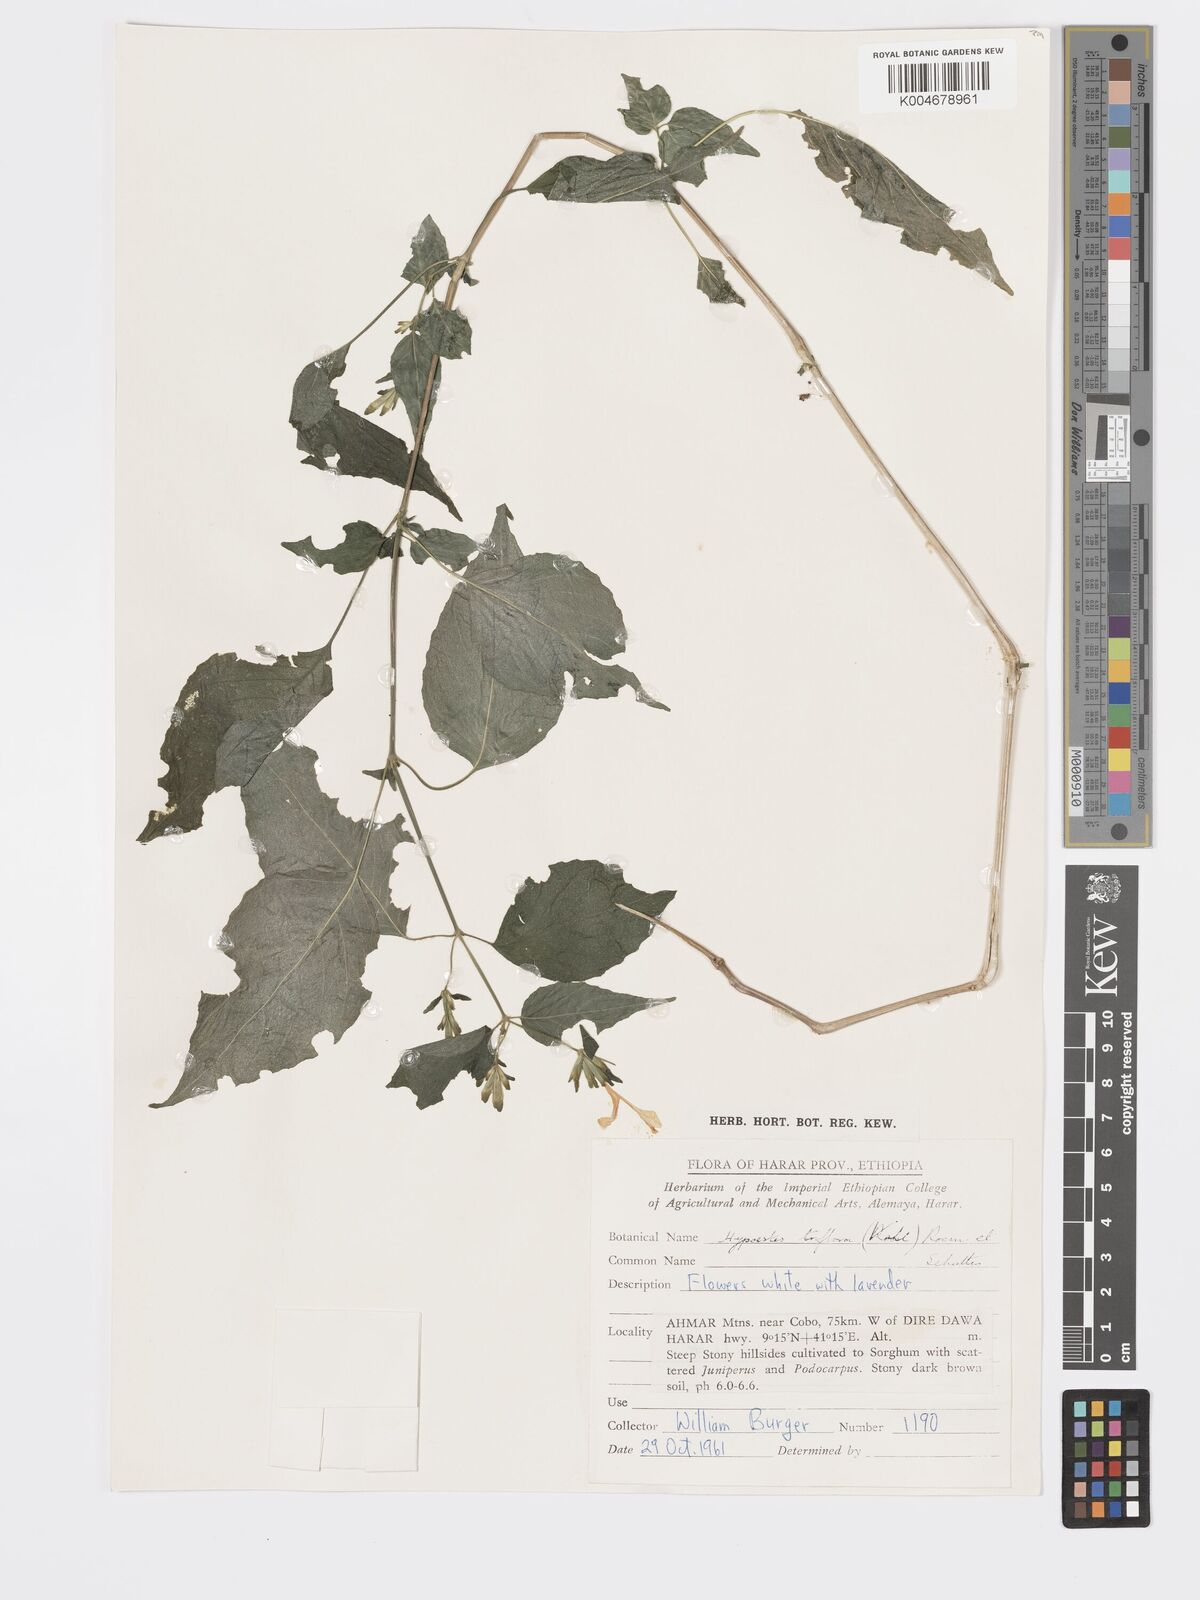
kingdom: Plantae
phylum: Tracheophyta
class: Magnoliopsida
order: Lamiales
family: Acanthaceae
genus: Hypoestes
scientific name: Hypoestes triflora
